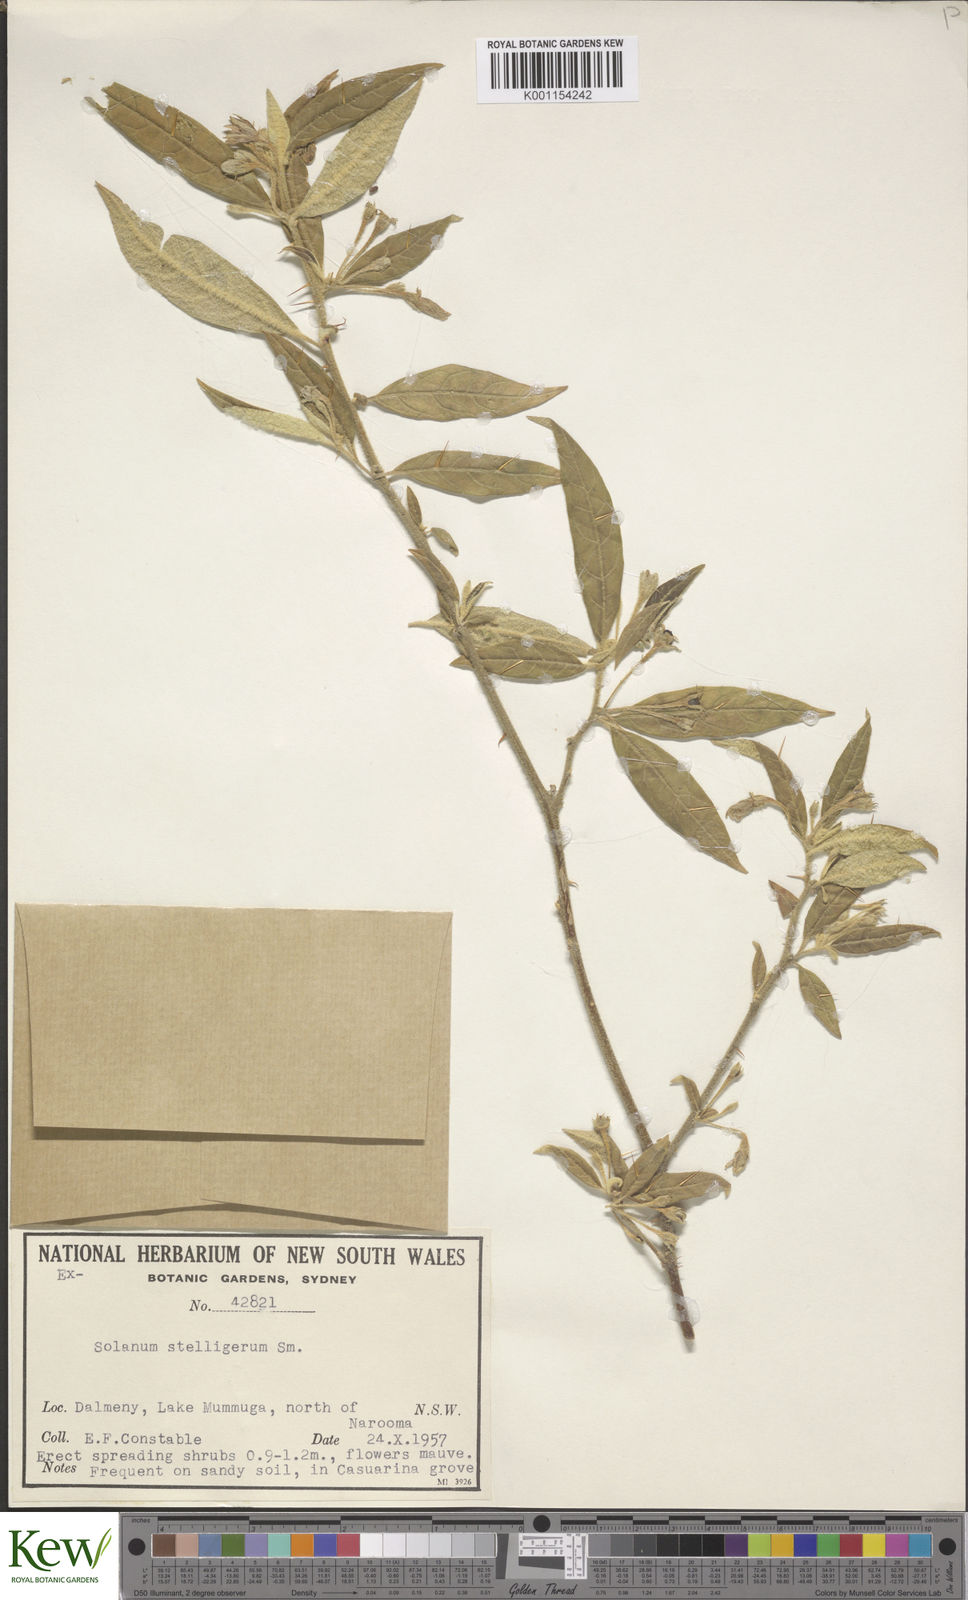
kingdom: Plantae
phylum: Tracheophyta
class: Magnoliopsida
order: Solanales
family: Solanaceae
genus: Solanum
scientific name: Solanum stelligerum
